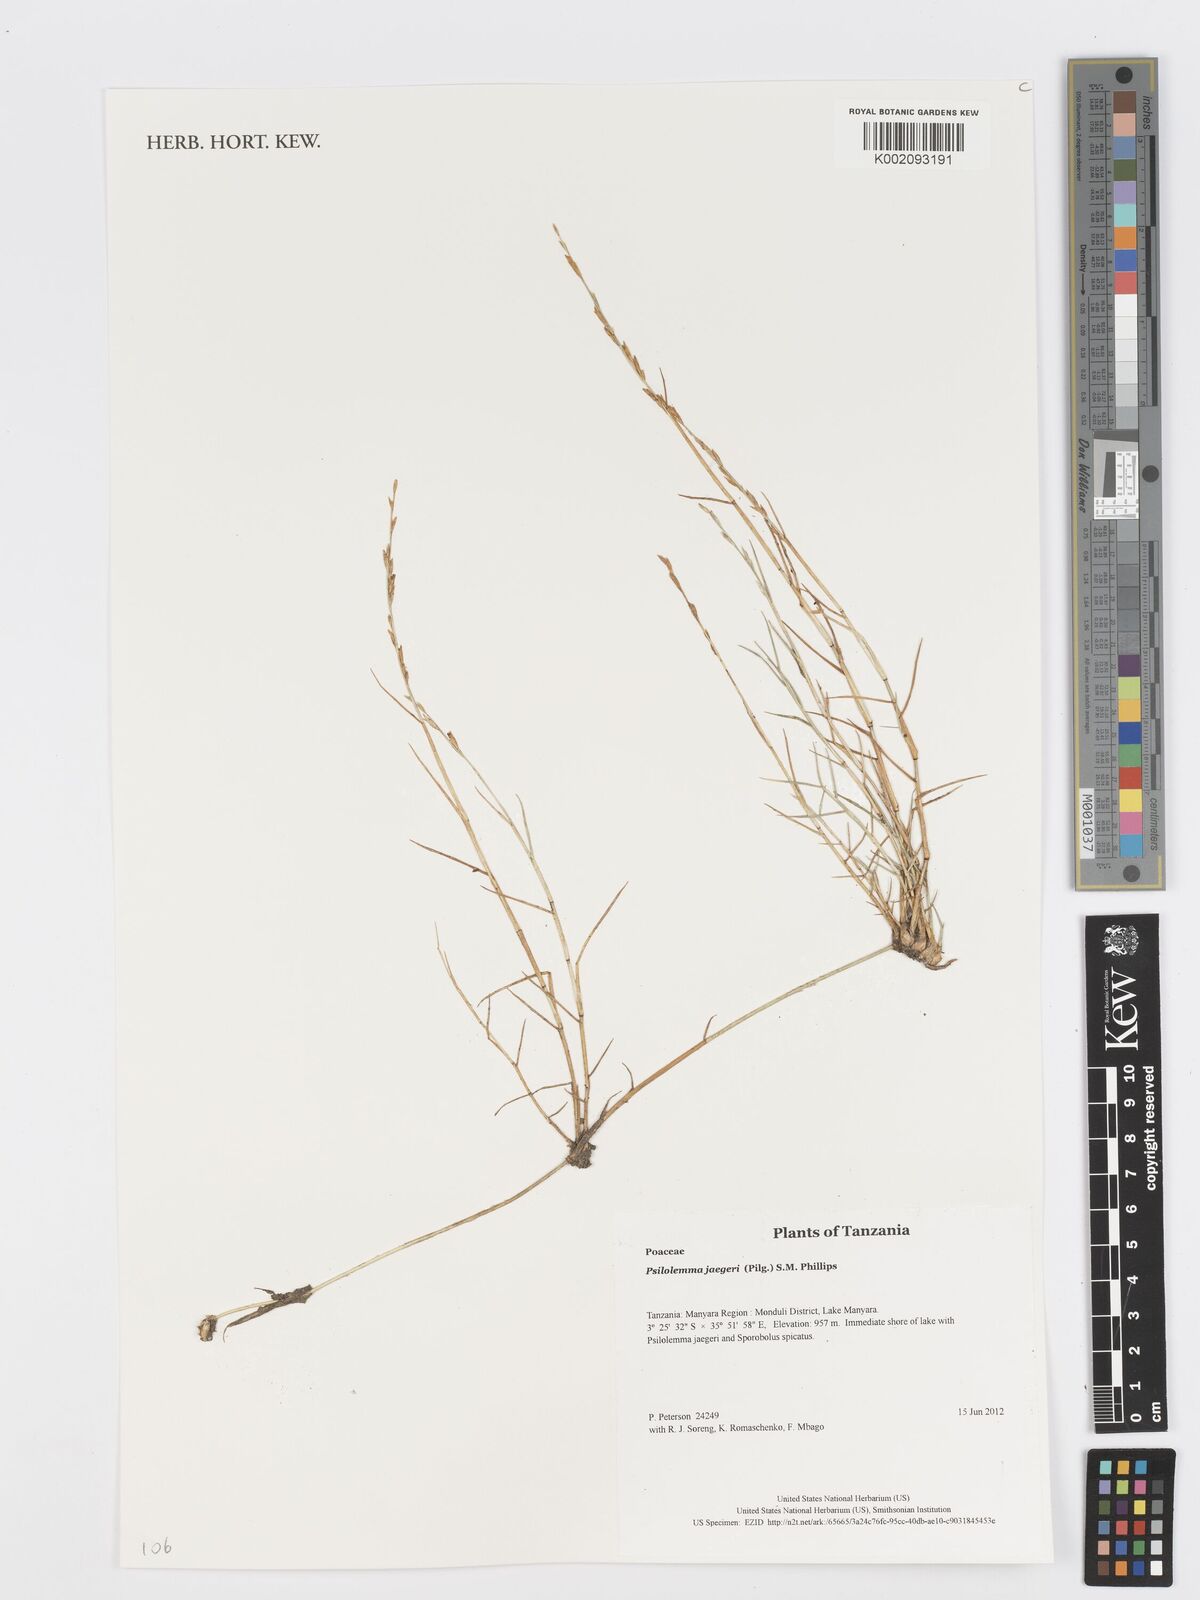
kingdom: Plantae
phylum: Tracheophyta
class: Liliopsida
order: Poales
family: Poaceae
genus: Psilolemma
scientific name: Psilolemma jaegeri
